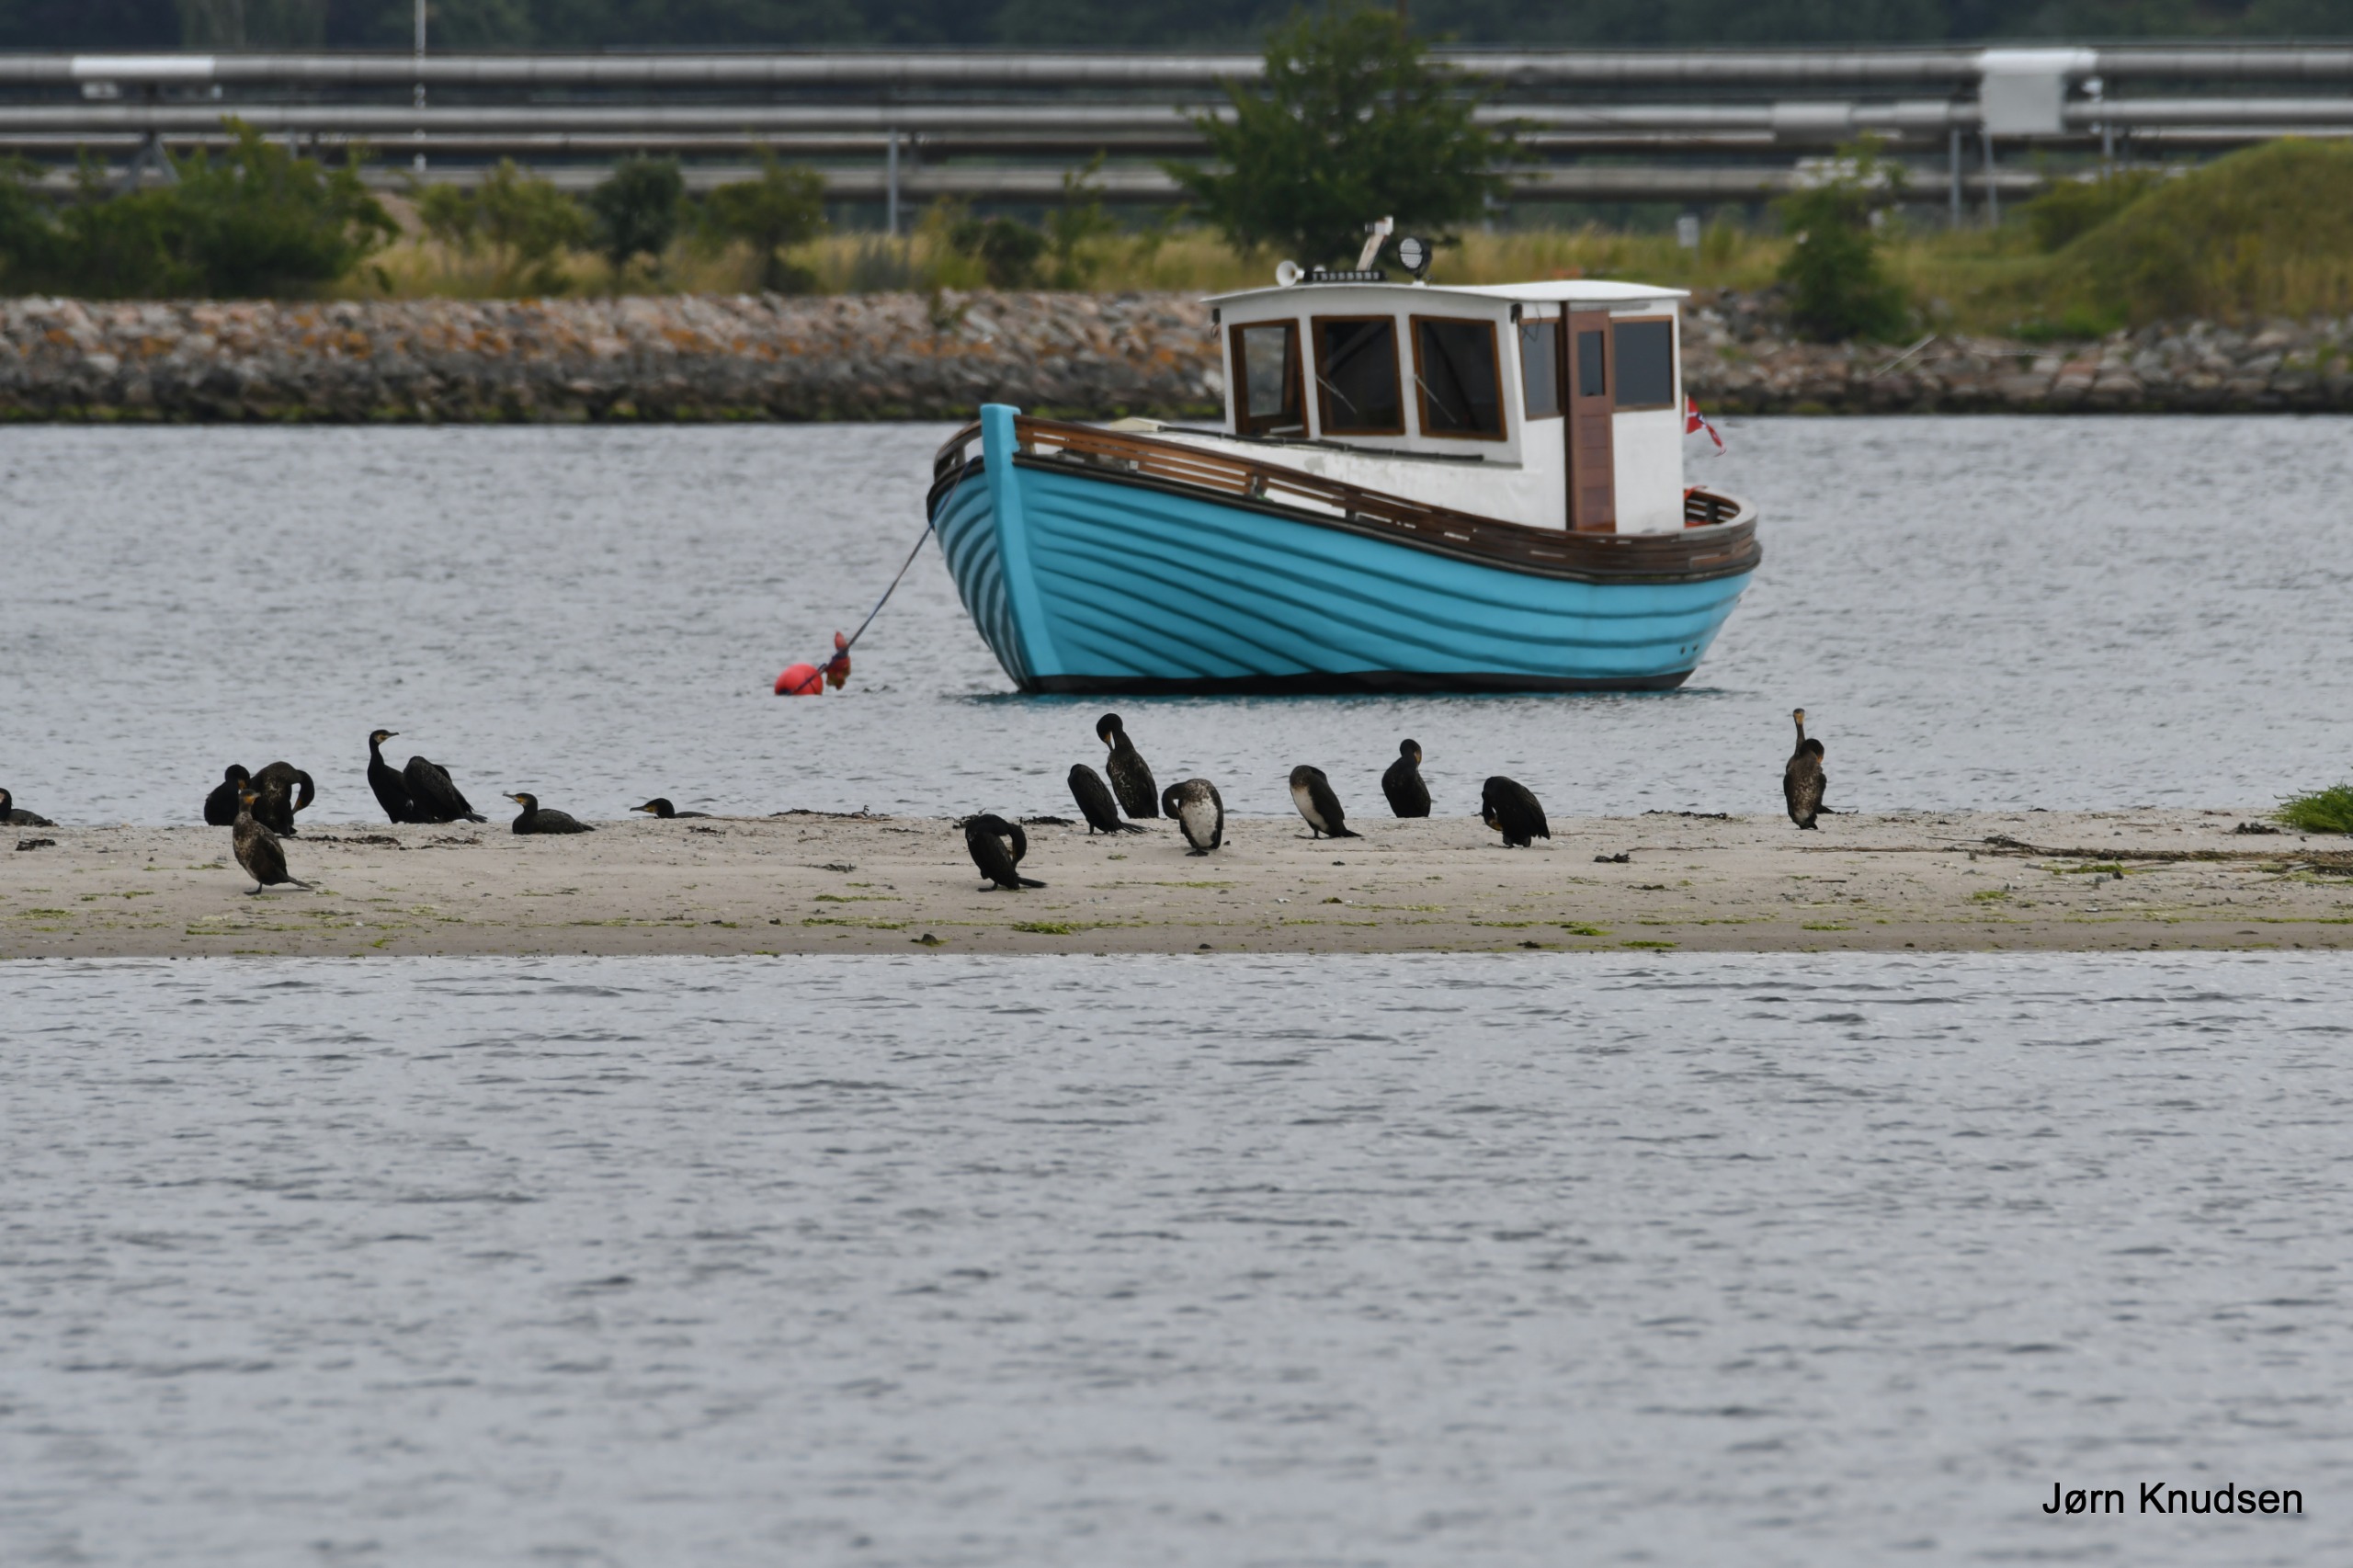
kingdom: Animalia
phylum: Chordata
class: Aves
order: Suliformes
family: Phalacrocoracidae
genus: Phalacrocorax
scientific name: Phalacrocorax carbo
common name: Skarv
